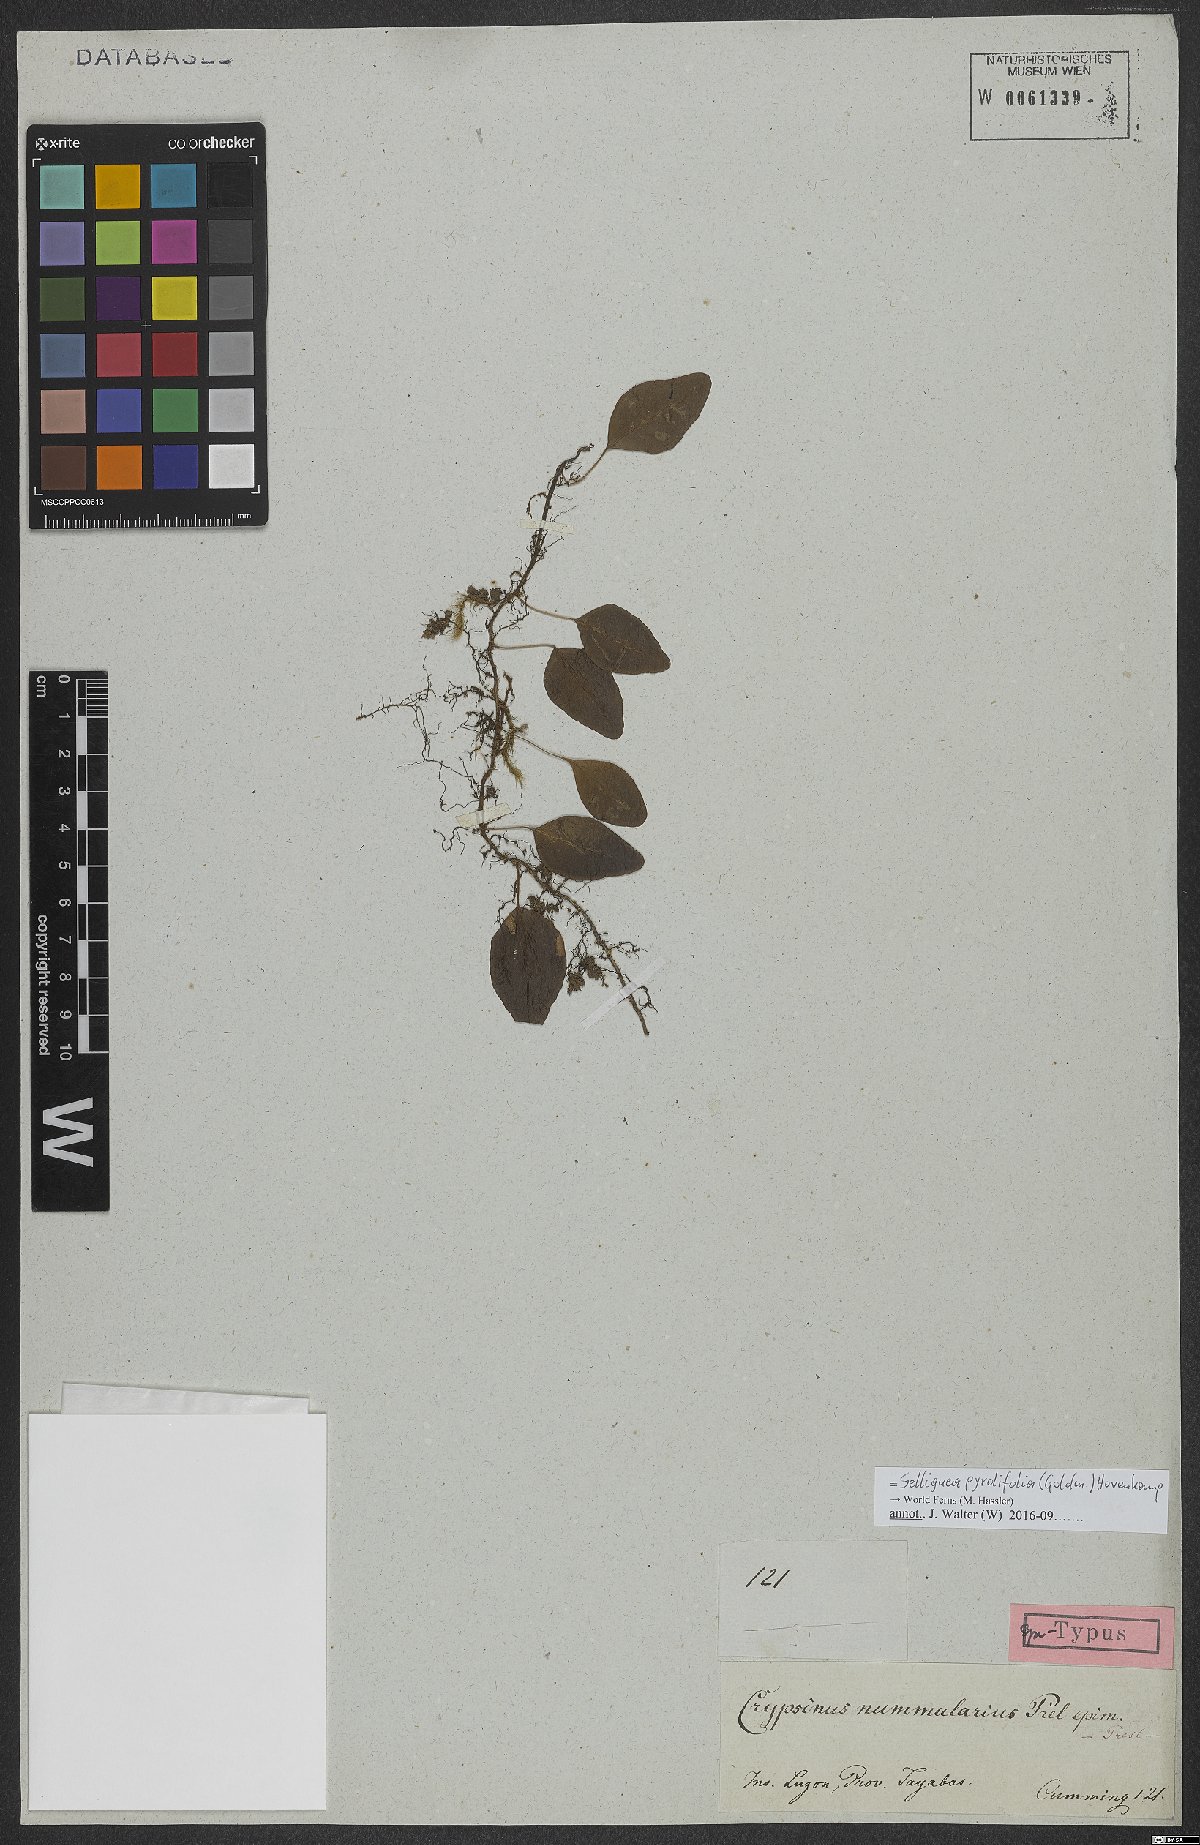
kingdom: Plantae
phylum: Tracheophyta
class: Polypodiopsida
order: Polypodiales
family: Polypodiaceae
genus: Selliguea
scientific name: Selliguea pyrolifolia
